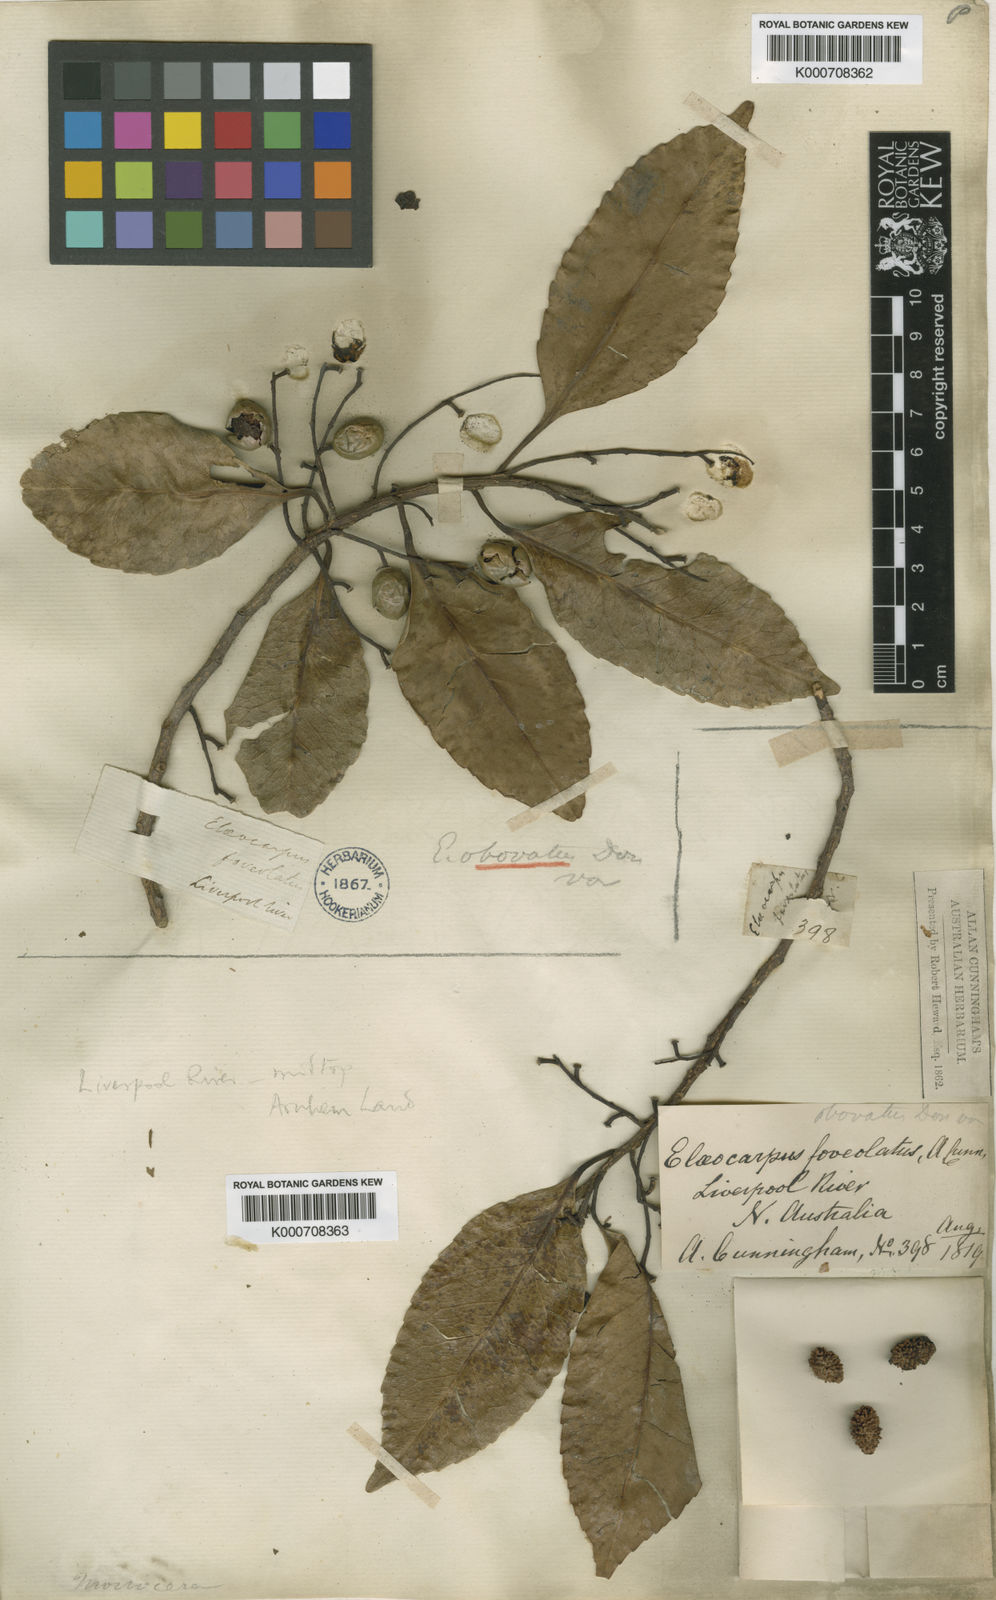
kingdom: Plantae
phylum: Tracheophyta
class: Magnoliopsida
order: Oxalidales
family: Elaeocarpaceae
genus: Elaeocarpus
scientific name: Elaeocarpus arnhemicus
